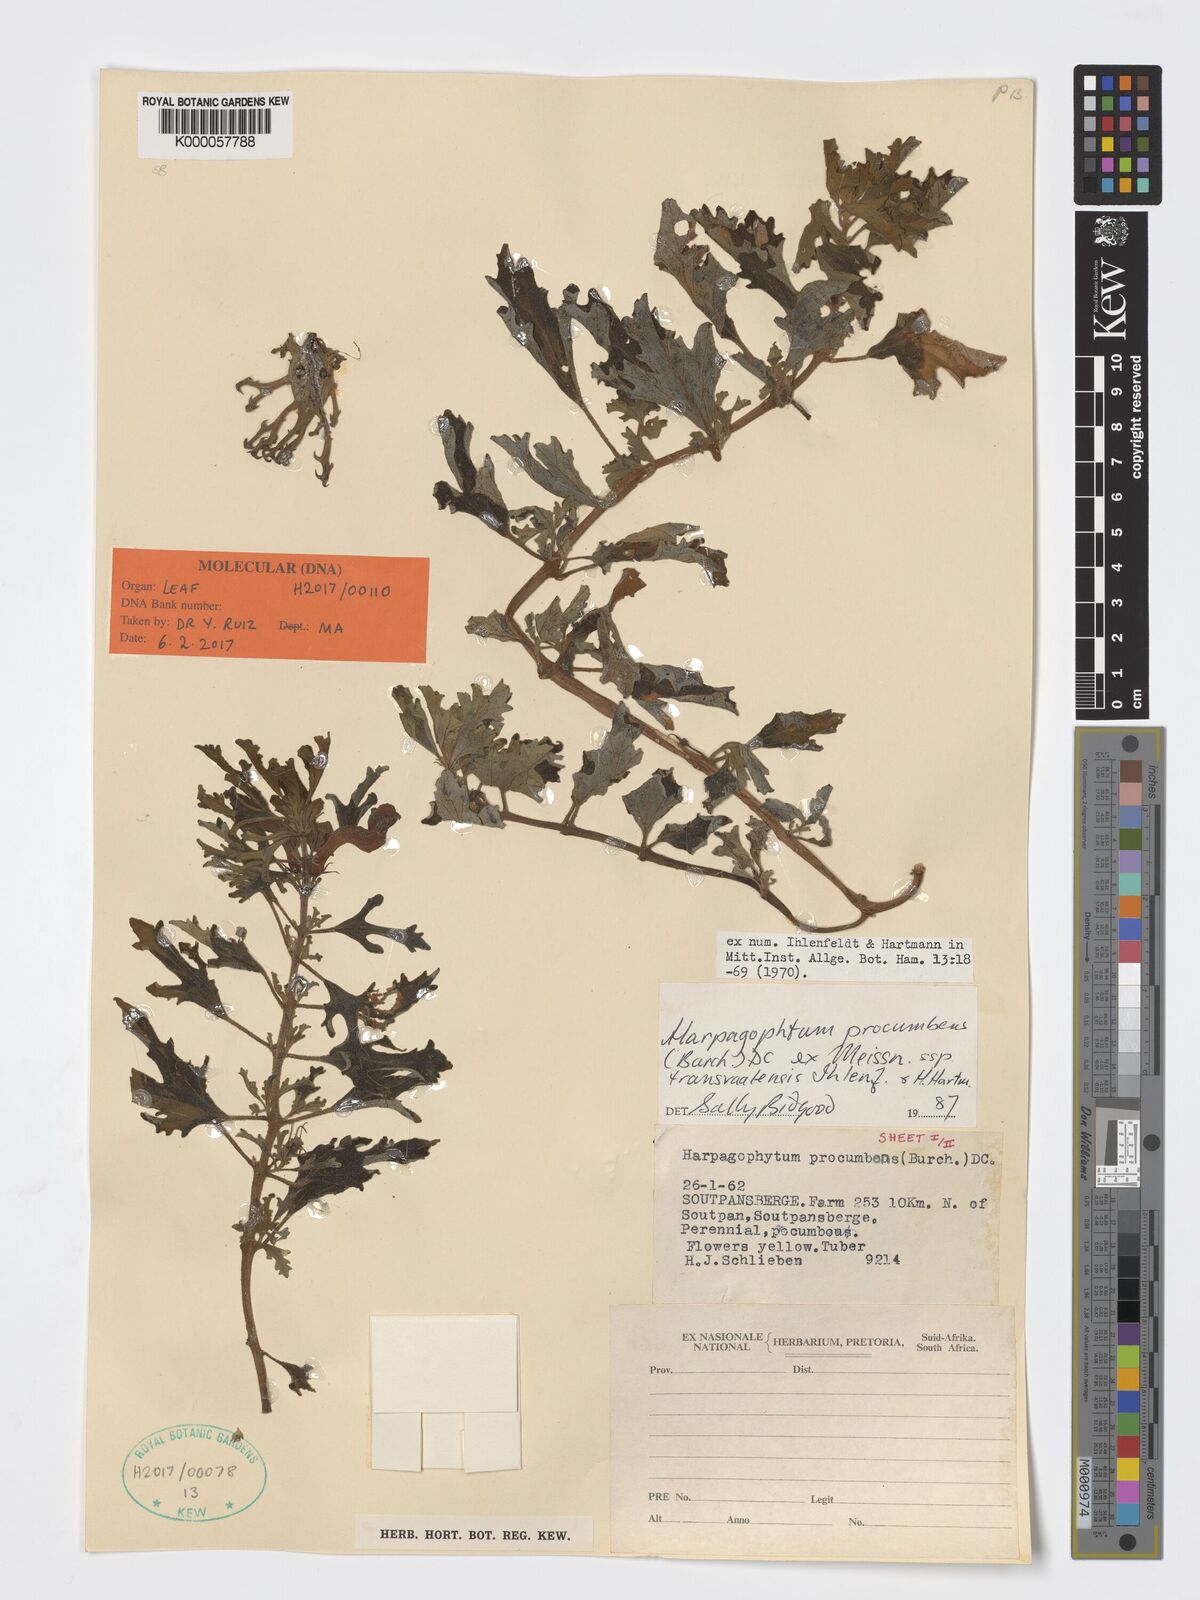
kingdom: Plantae
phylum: Tracheophyta
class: Magnoliopsida
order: Lamiales
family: Pedaliaceae
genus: Harpagophytum
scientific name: Harpagophytum procumbens
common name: Grappleplant
